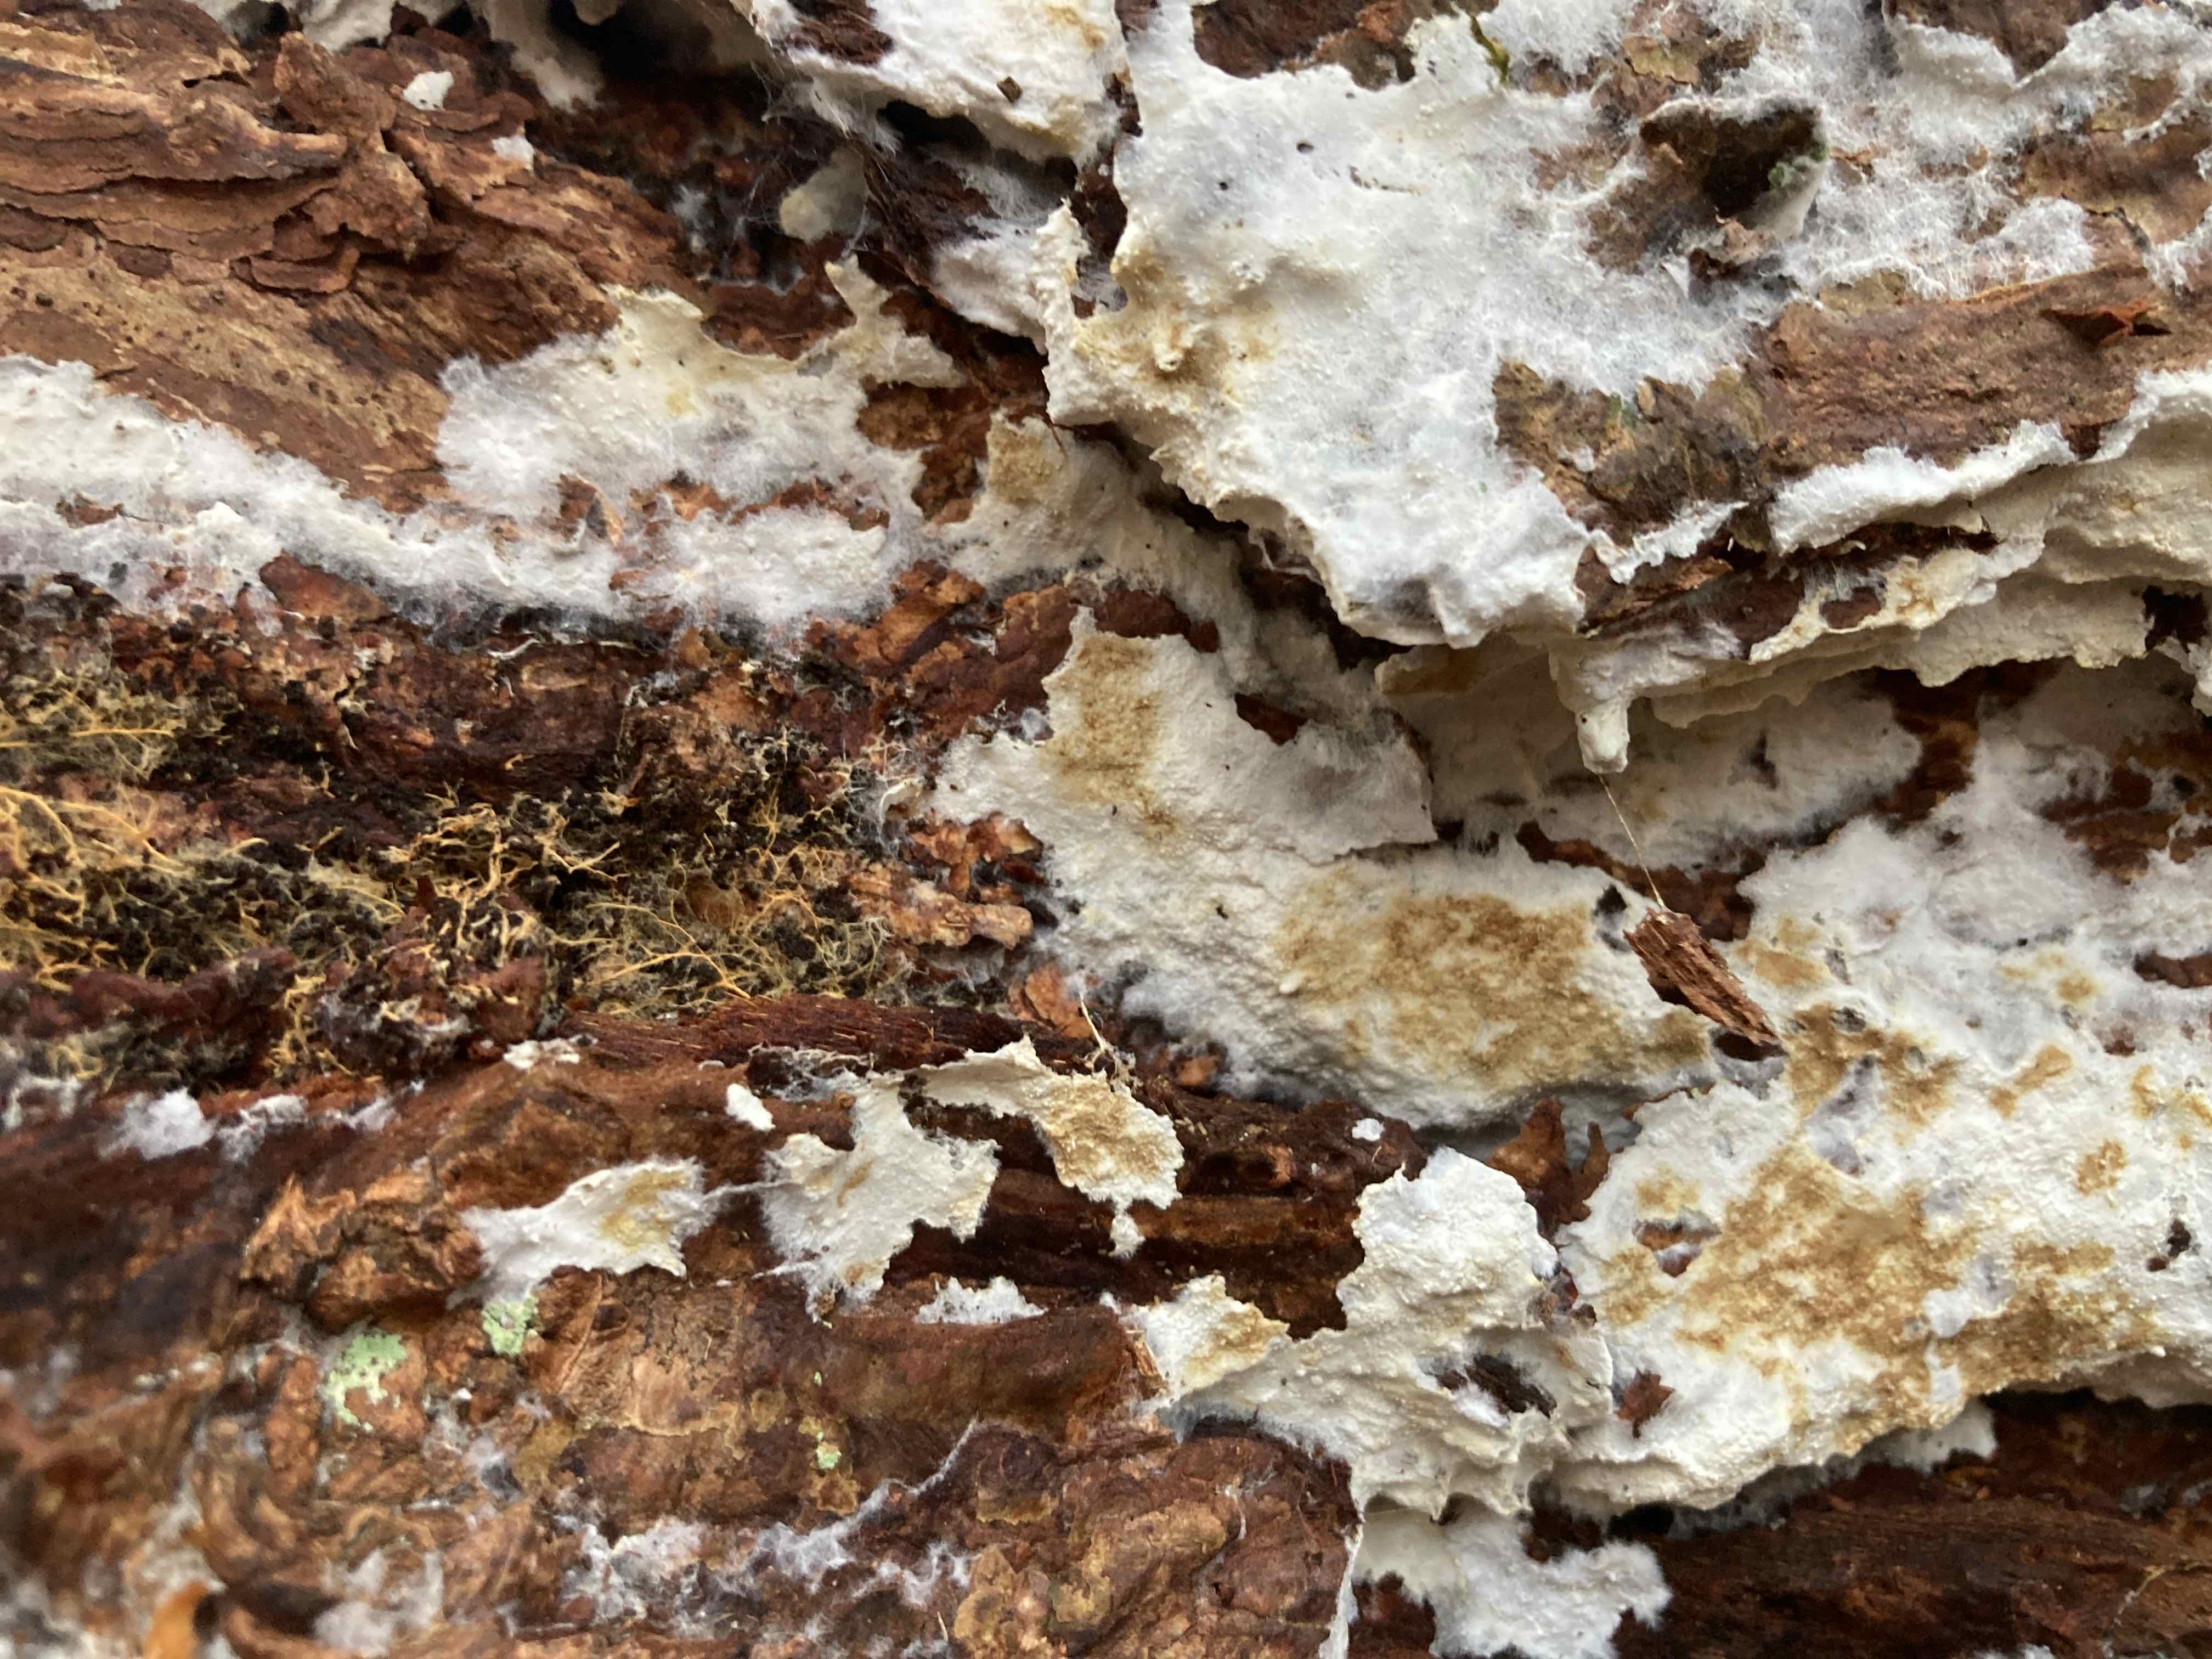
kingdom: Fungi
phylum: Basidiomycota
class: Agaricomycetes
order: Atheliales
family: Atheliaceae
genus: Leptosporomyces
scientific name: Leptosporomyces fuscostratus
